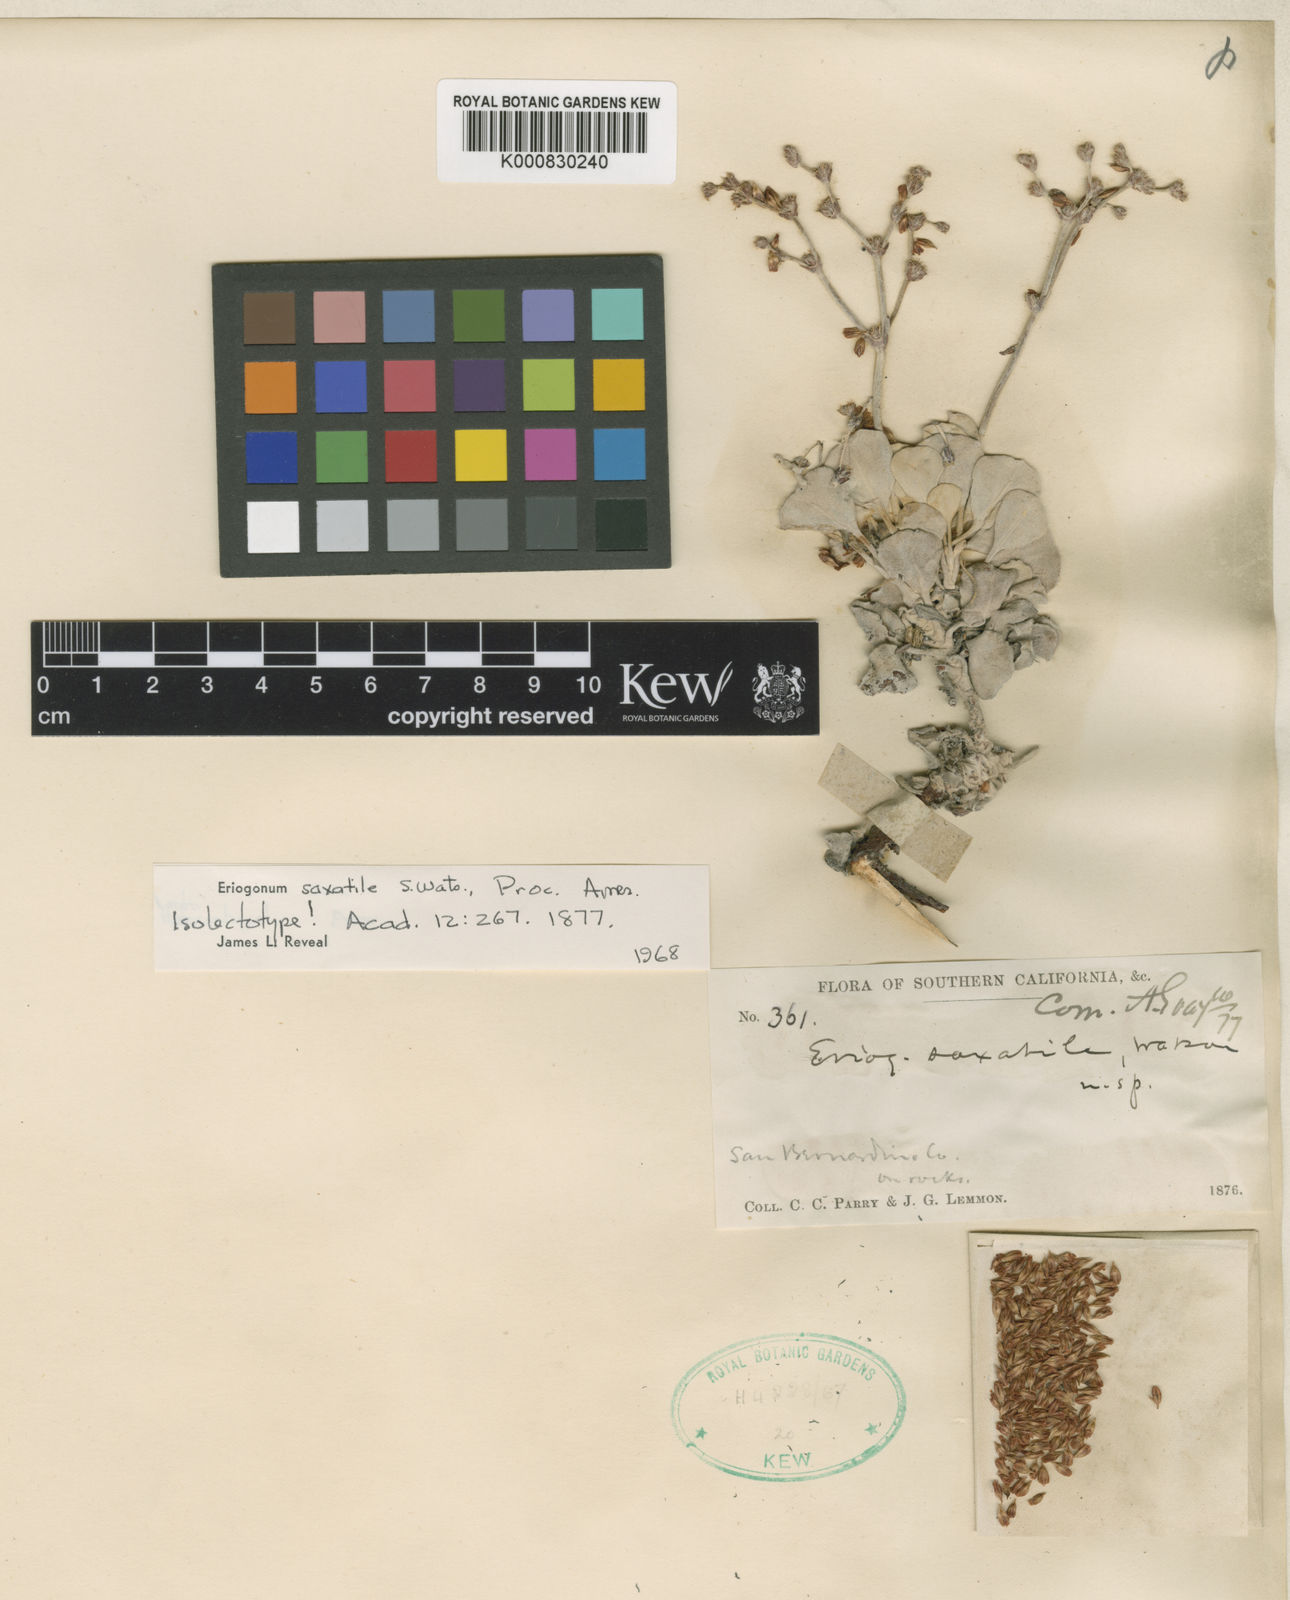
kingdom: Plantae
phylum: Tracheophyta
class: Magnoliopsida
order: Caryophyllales
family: Polygonaceae
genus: Eriogonum
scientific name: Eriogonum saxatile
